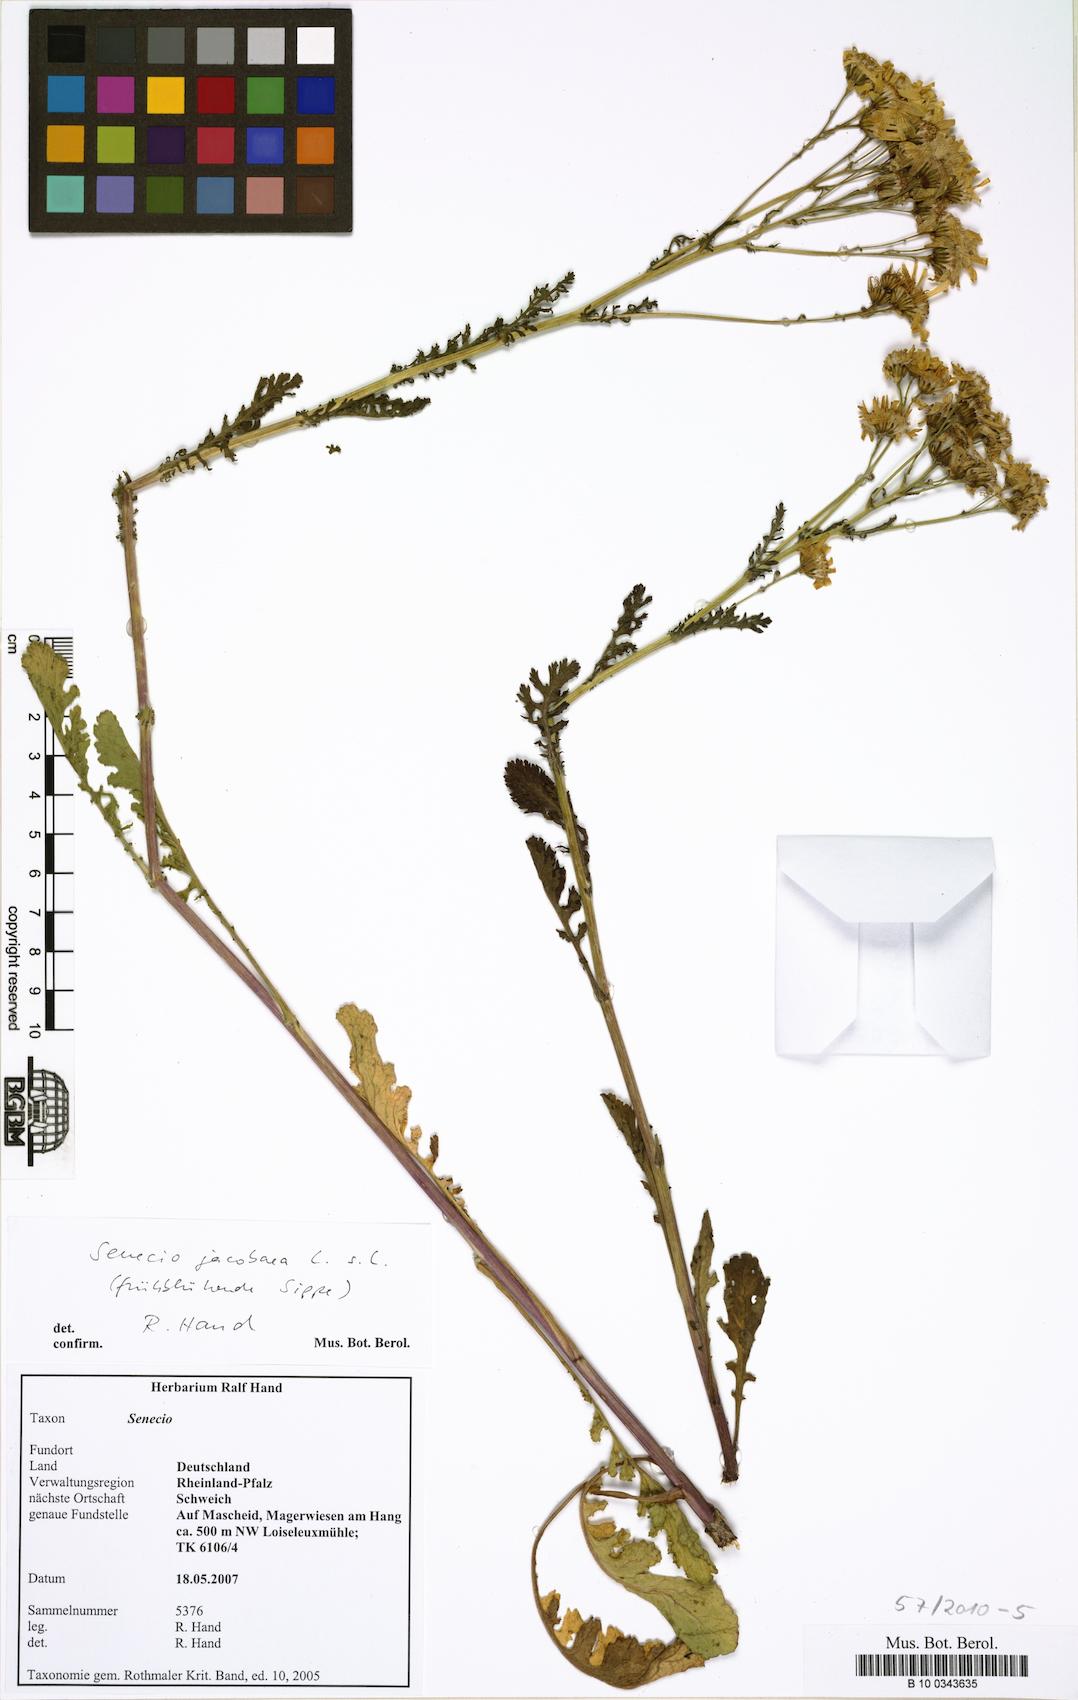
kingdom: Plantae
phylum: Tracheophyta
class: Magnoliopsida
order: Asterales
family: Asteraceae
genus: Jacobaea
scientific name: Jacobaea vulgaris
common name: Stinking willie
